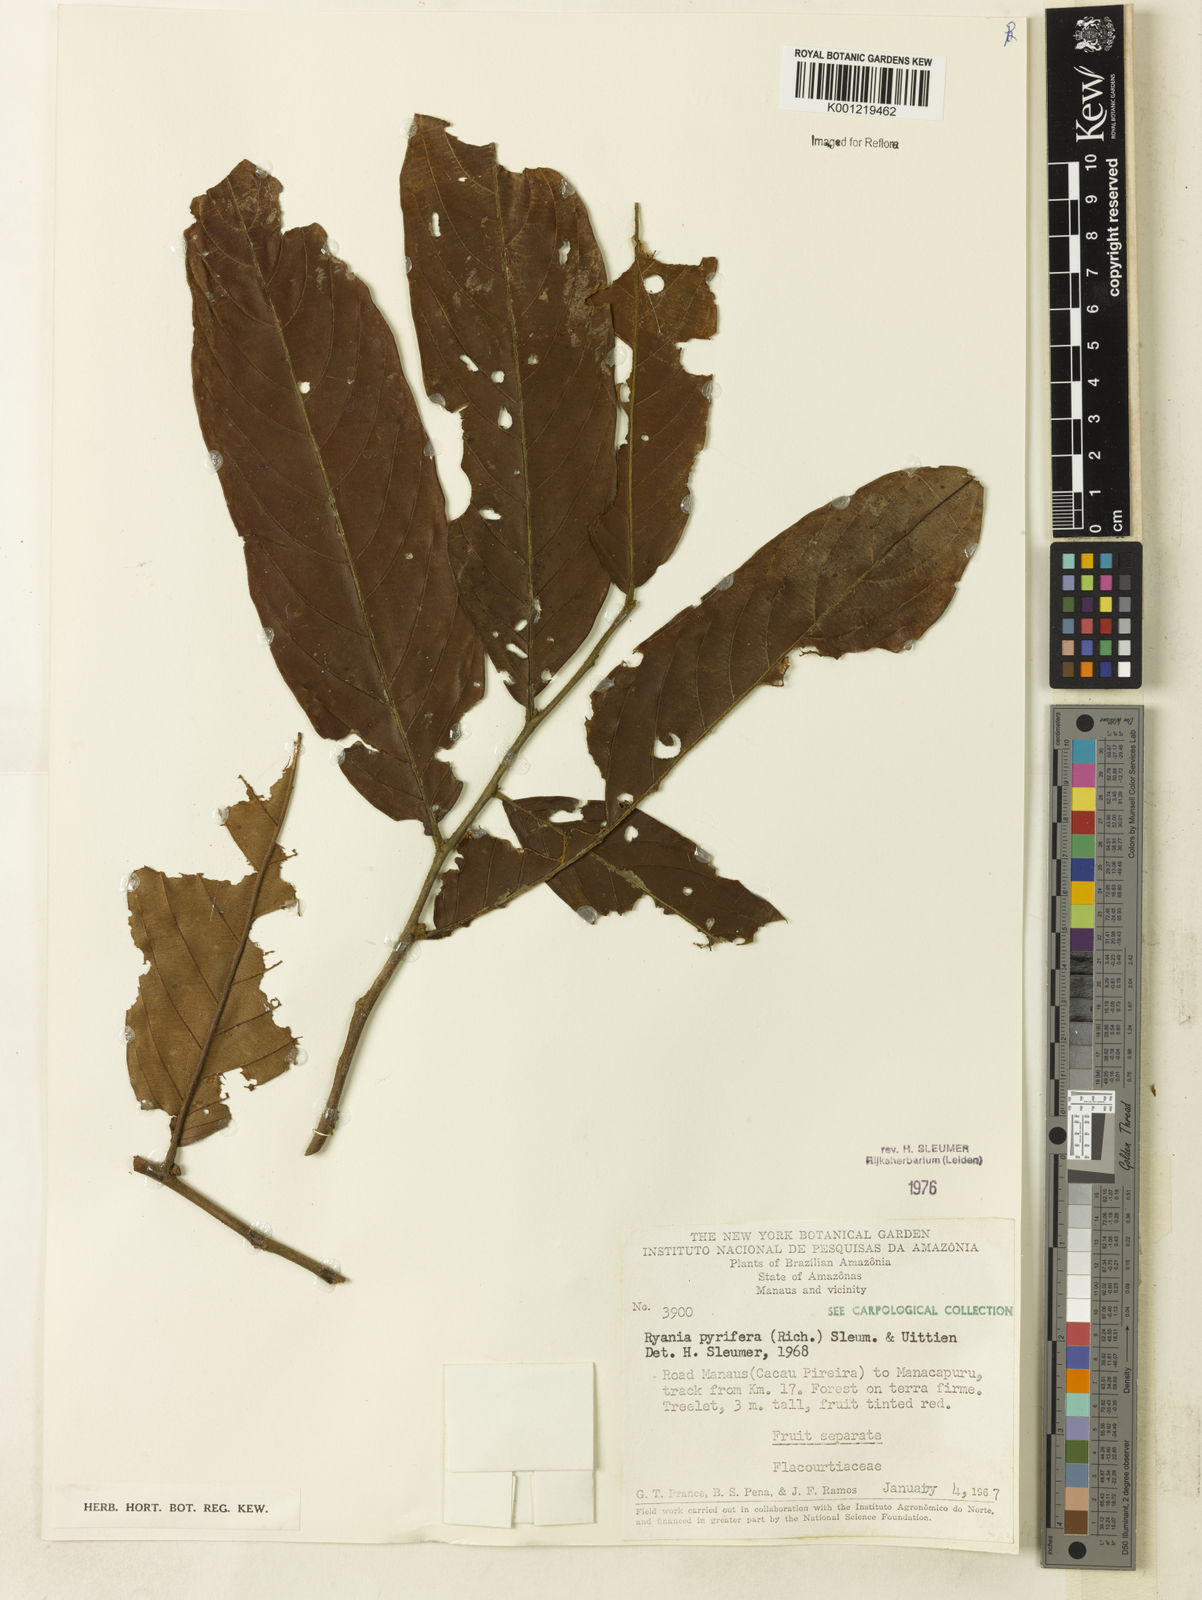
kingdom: Plantae
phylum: Tracheophyta
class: Magnoliopsida
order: Malpighiales
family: Salicaceae
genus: Ryania
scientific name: Ryania pyrifera
